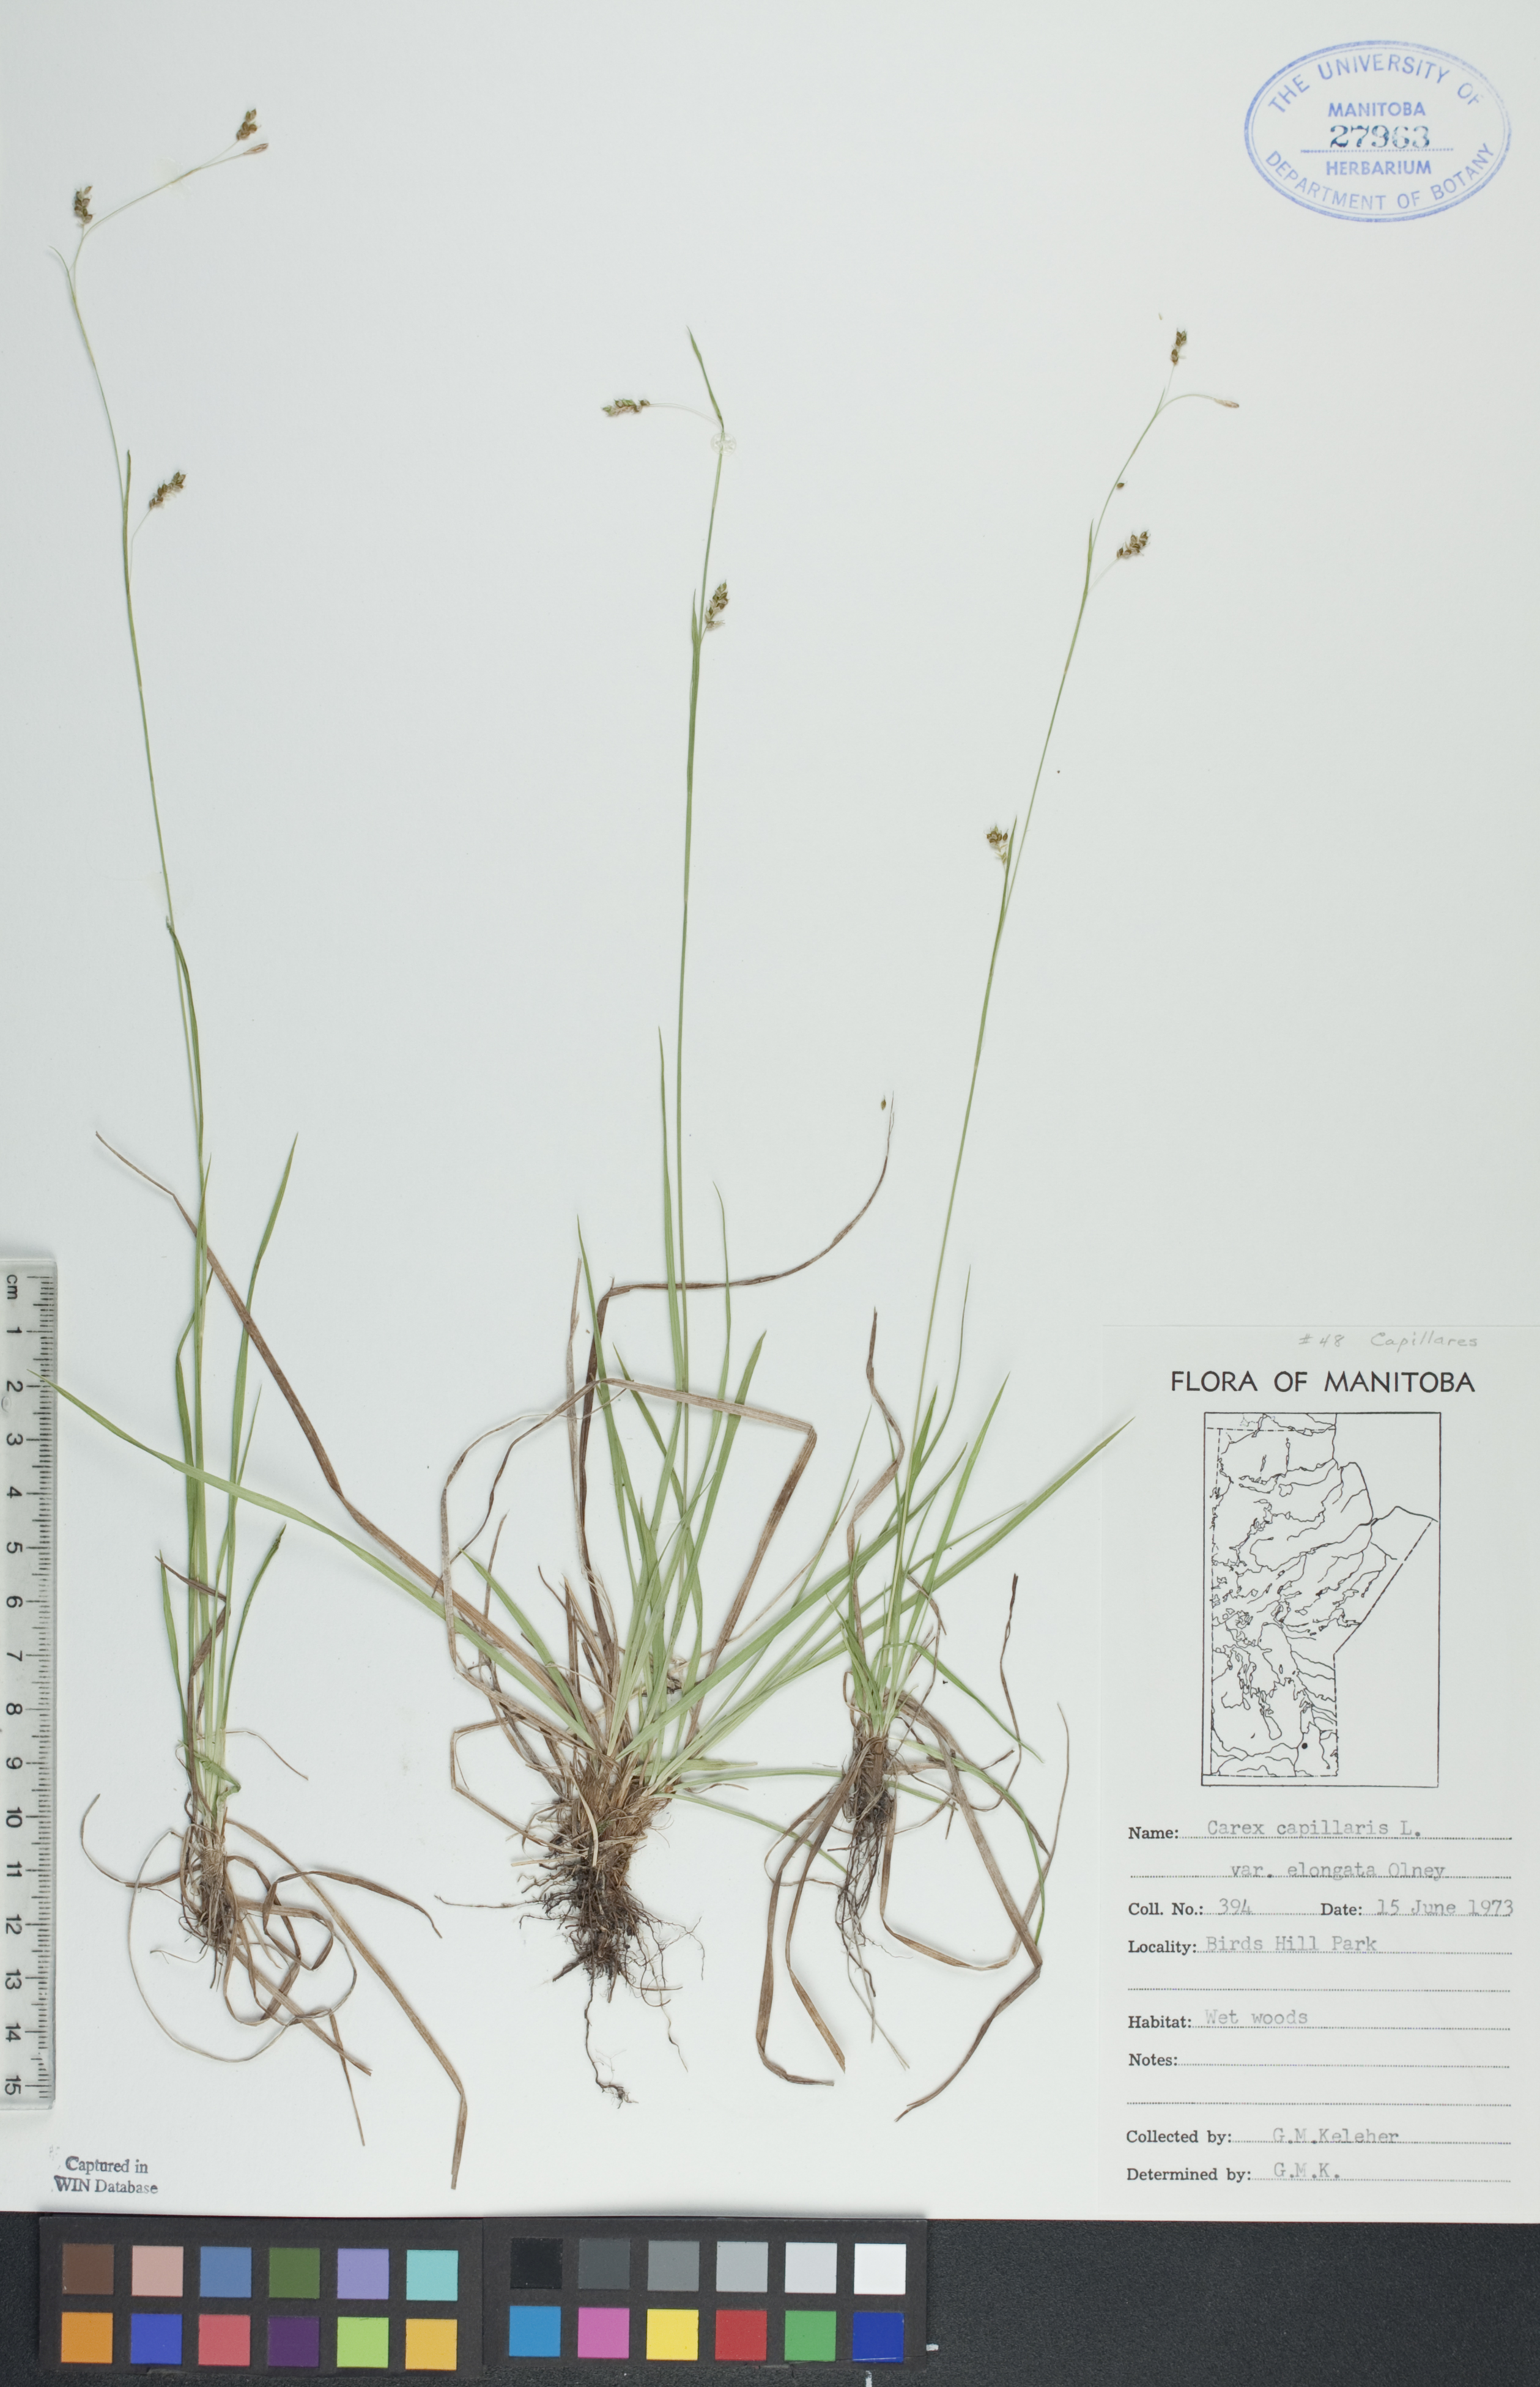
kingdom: Plantae
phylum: Tracheophyta
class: Liliopsida
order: Poales
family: Cyperaceae
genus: Carex
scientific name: Carex capillaris
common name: Hair sedge
